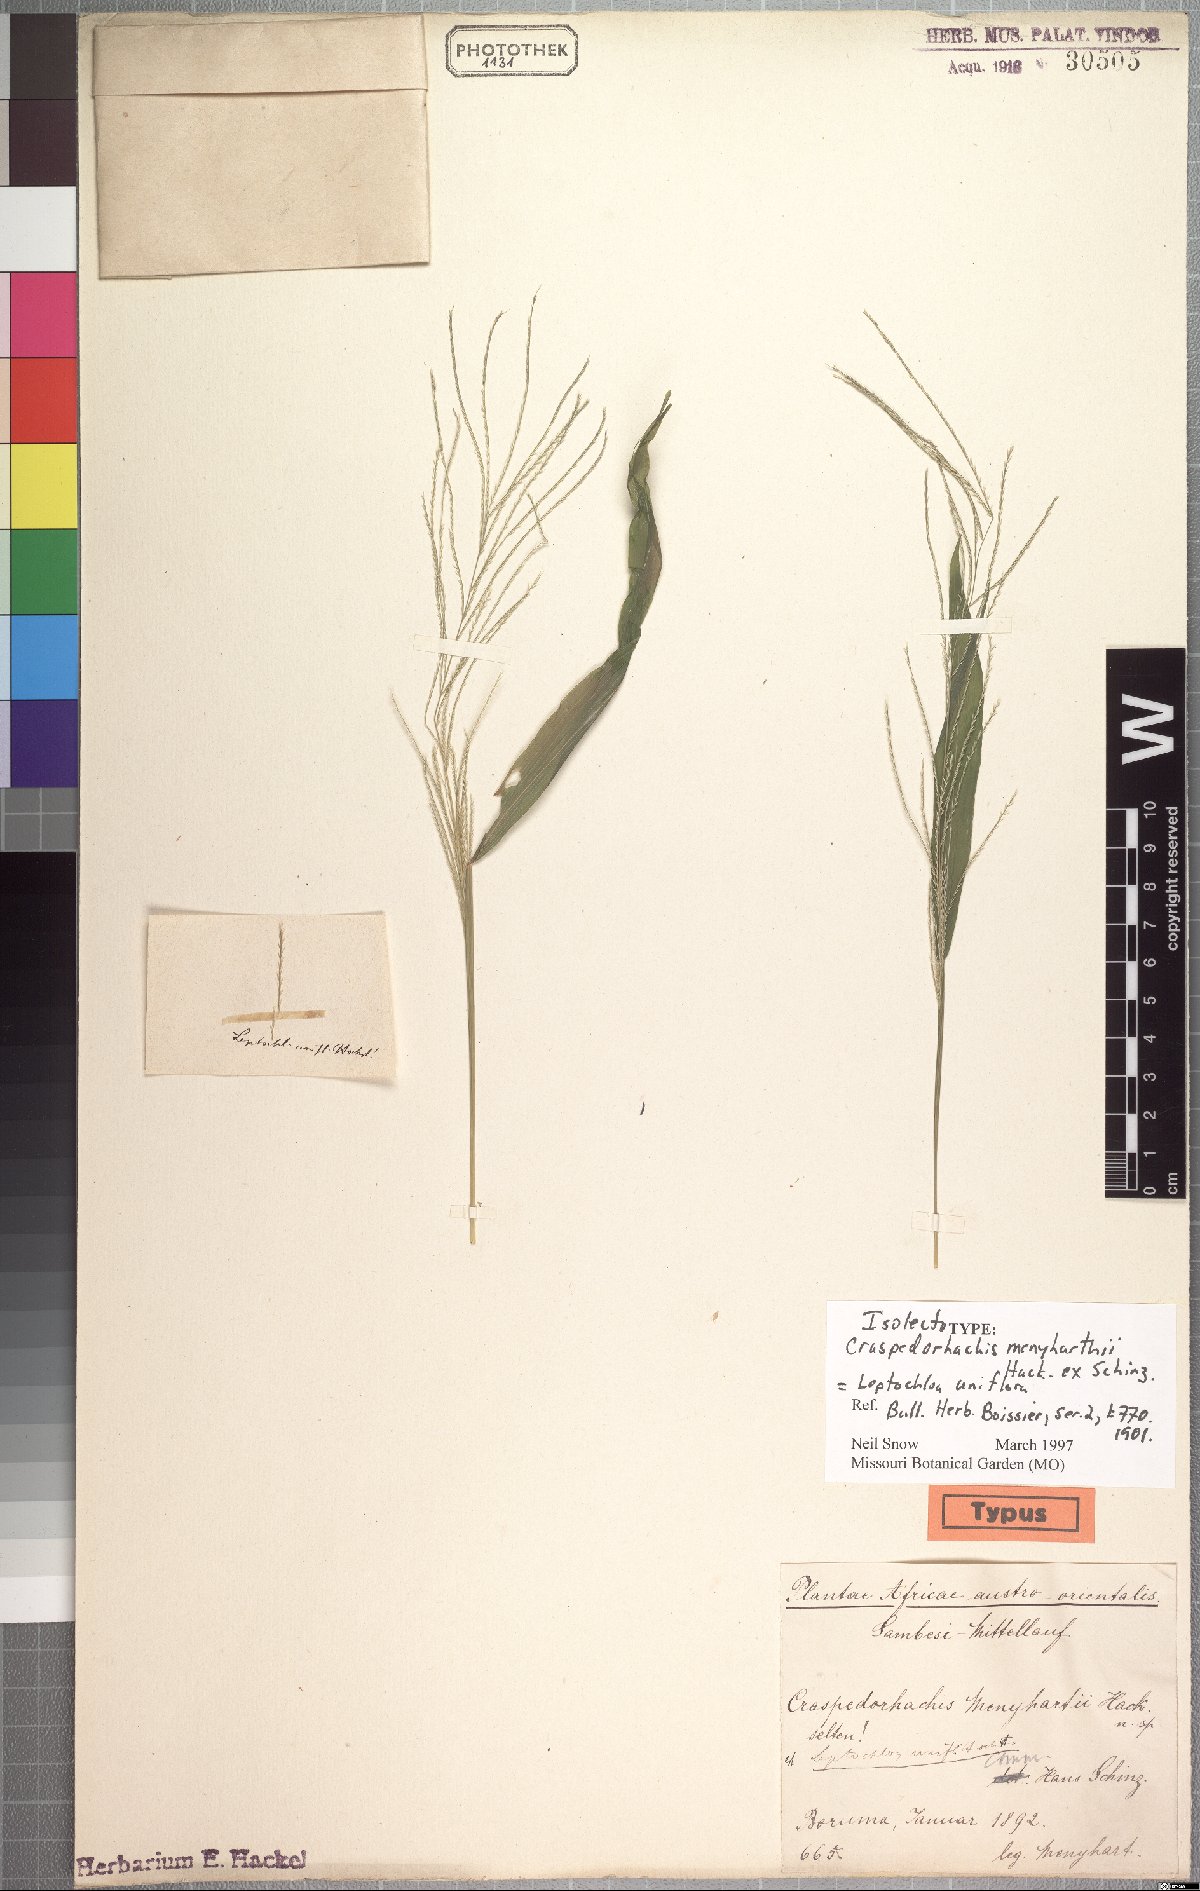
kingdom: Plantae
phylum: Tracheophyta
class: Liliopsida
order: Poales
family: Poaceae
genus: Trigonochloa
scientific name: Trigonochloa uniflora
